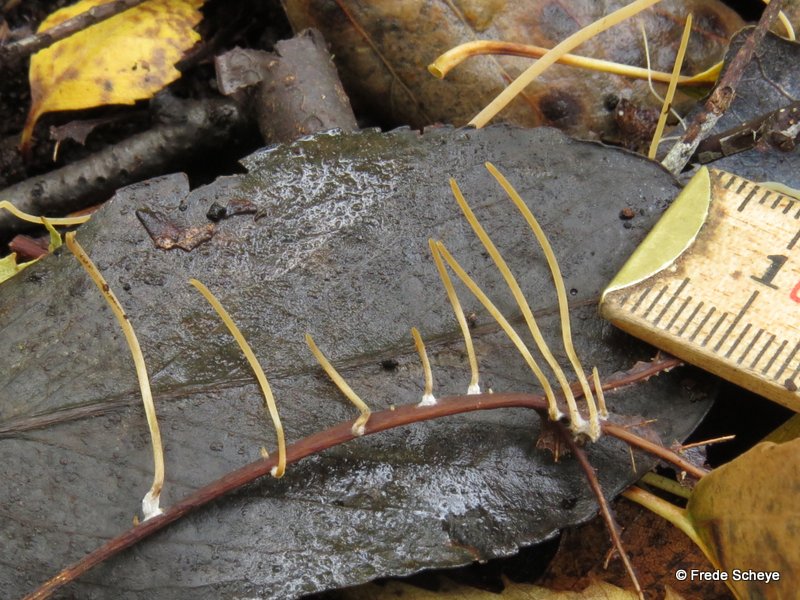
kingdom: Fungi
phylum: Basidiomycota
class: Agaricomycetes
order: Agaricales
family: Typhulaceae
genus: Typhula
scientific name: Typhula juncea
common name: trådagtig rørkølle
